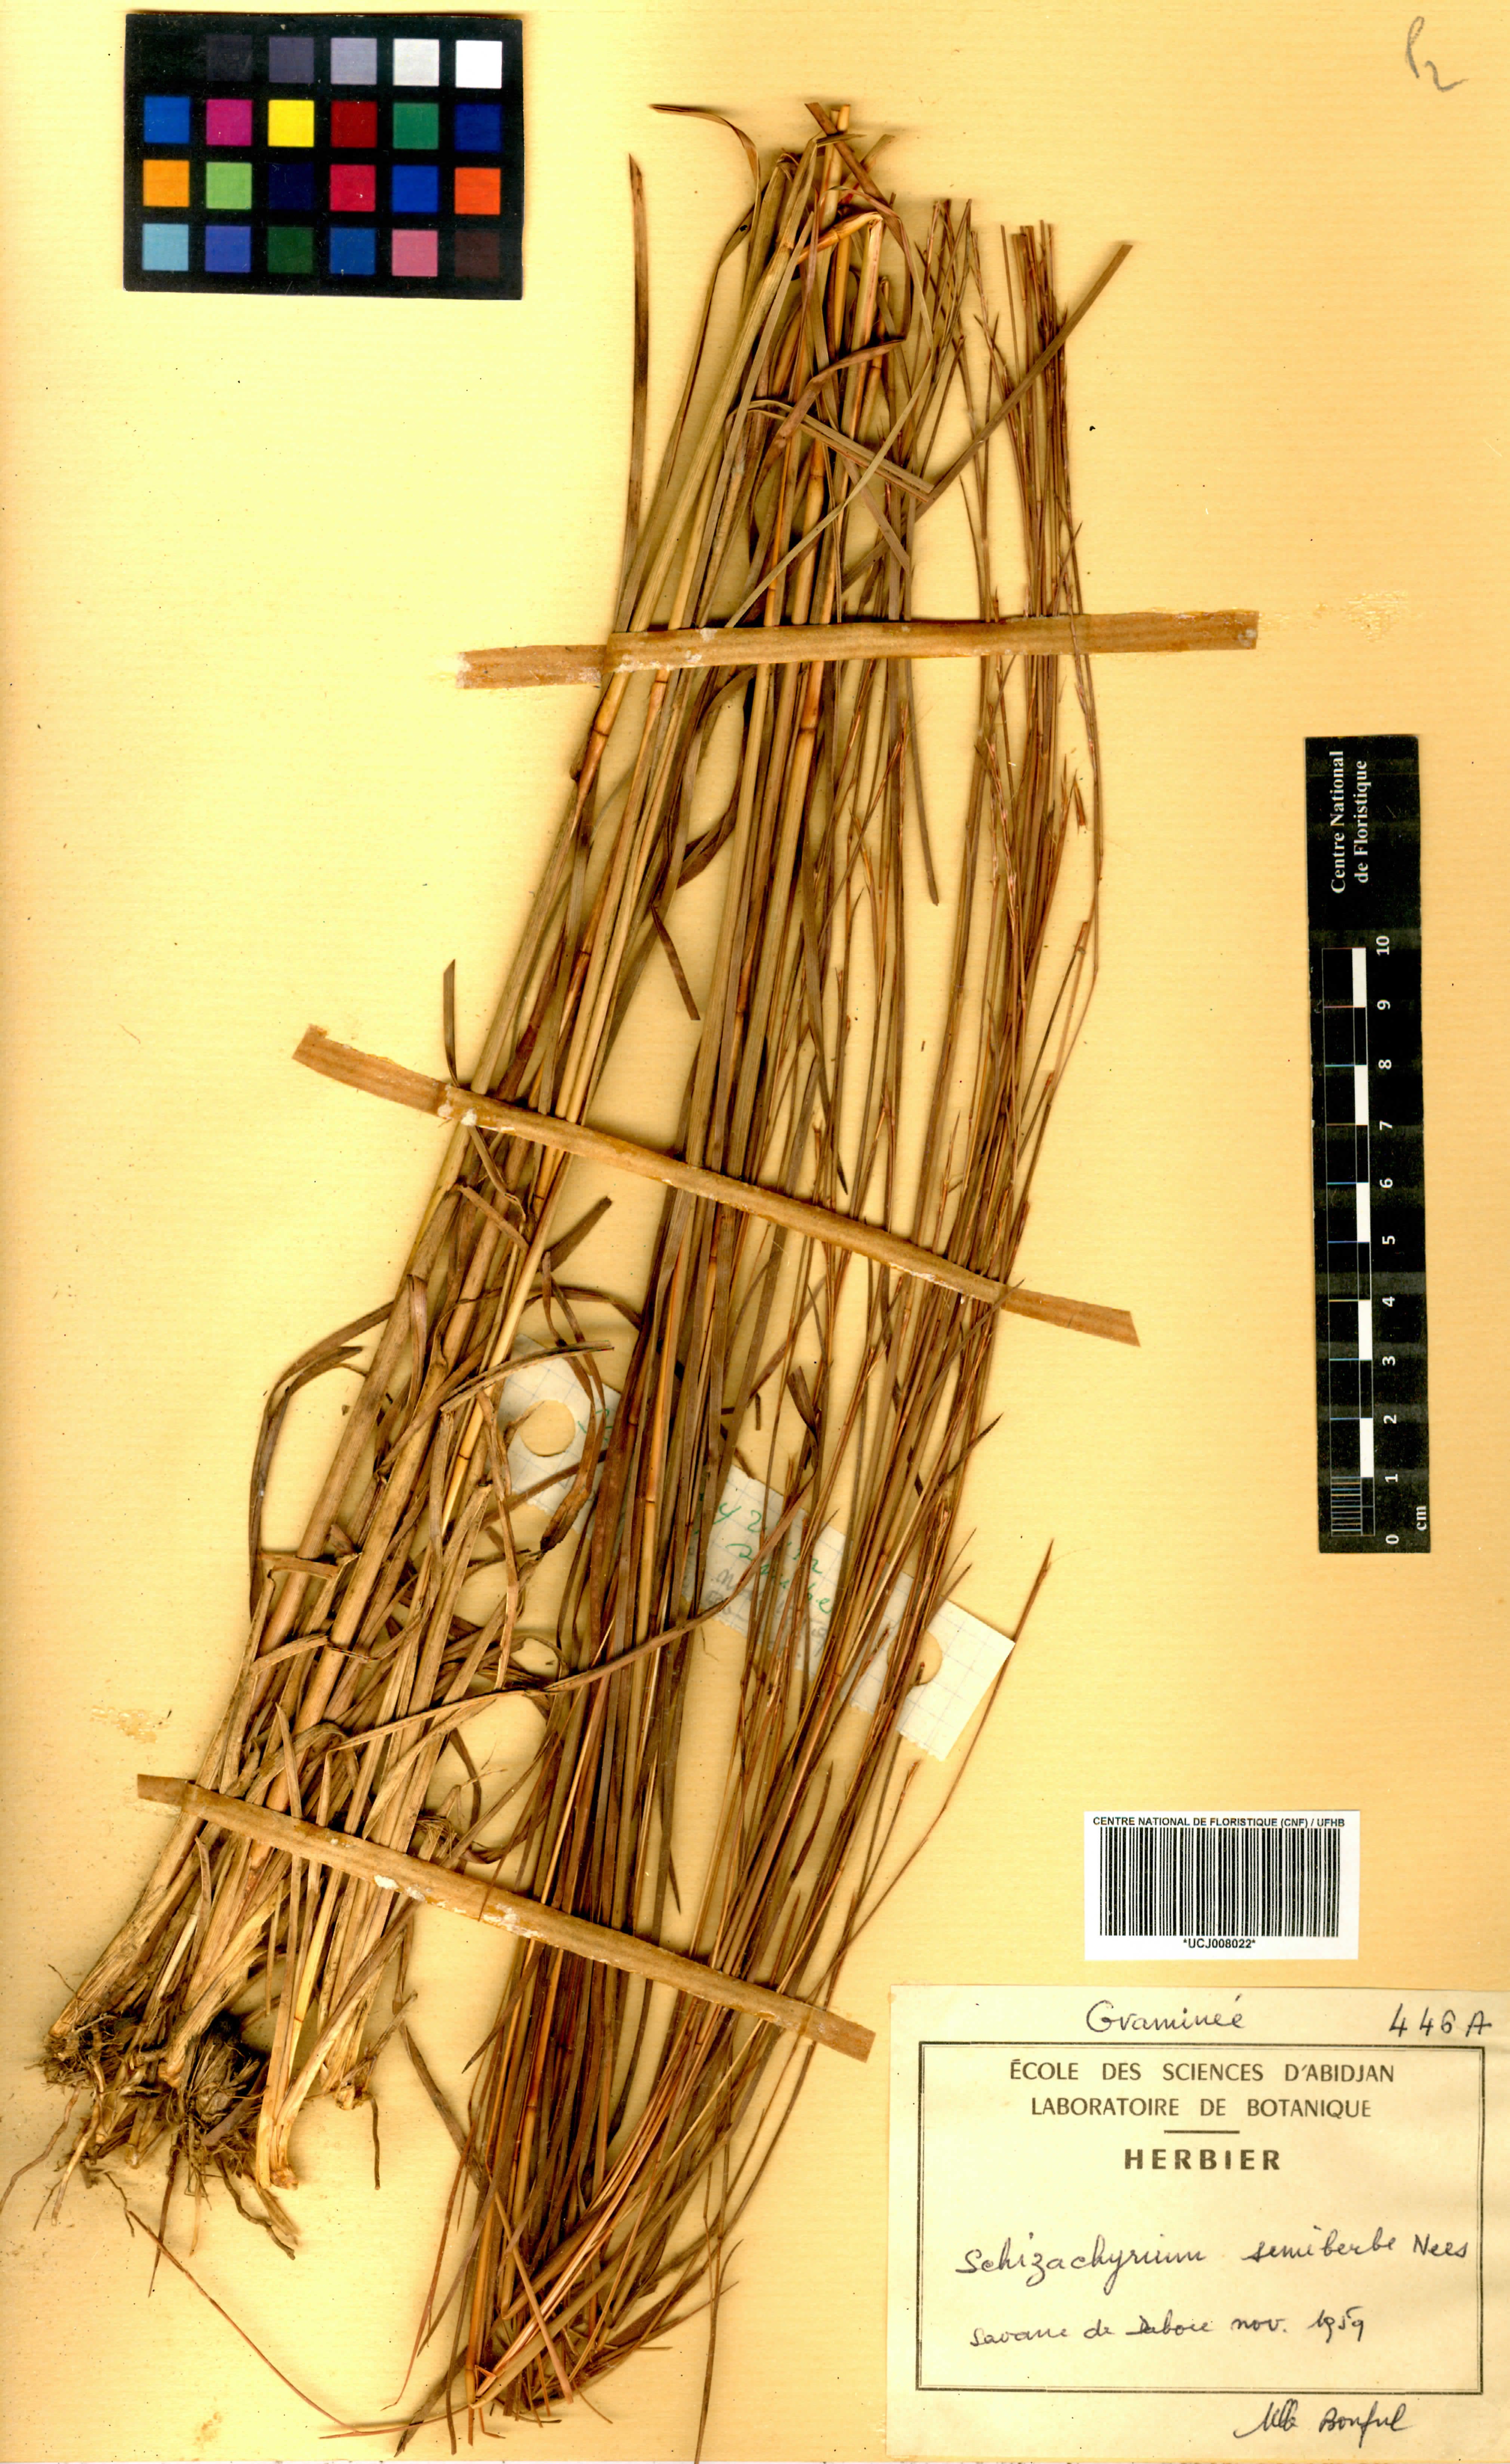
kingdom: Plantae
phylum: Tracheophyta
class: Liliopsida
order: Poales
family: Poaceae
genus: Schizachyrium
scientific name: Schizachyrium sanguineum
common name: Crimson bluestem
